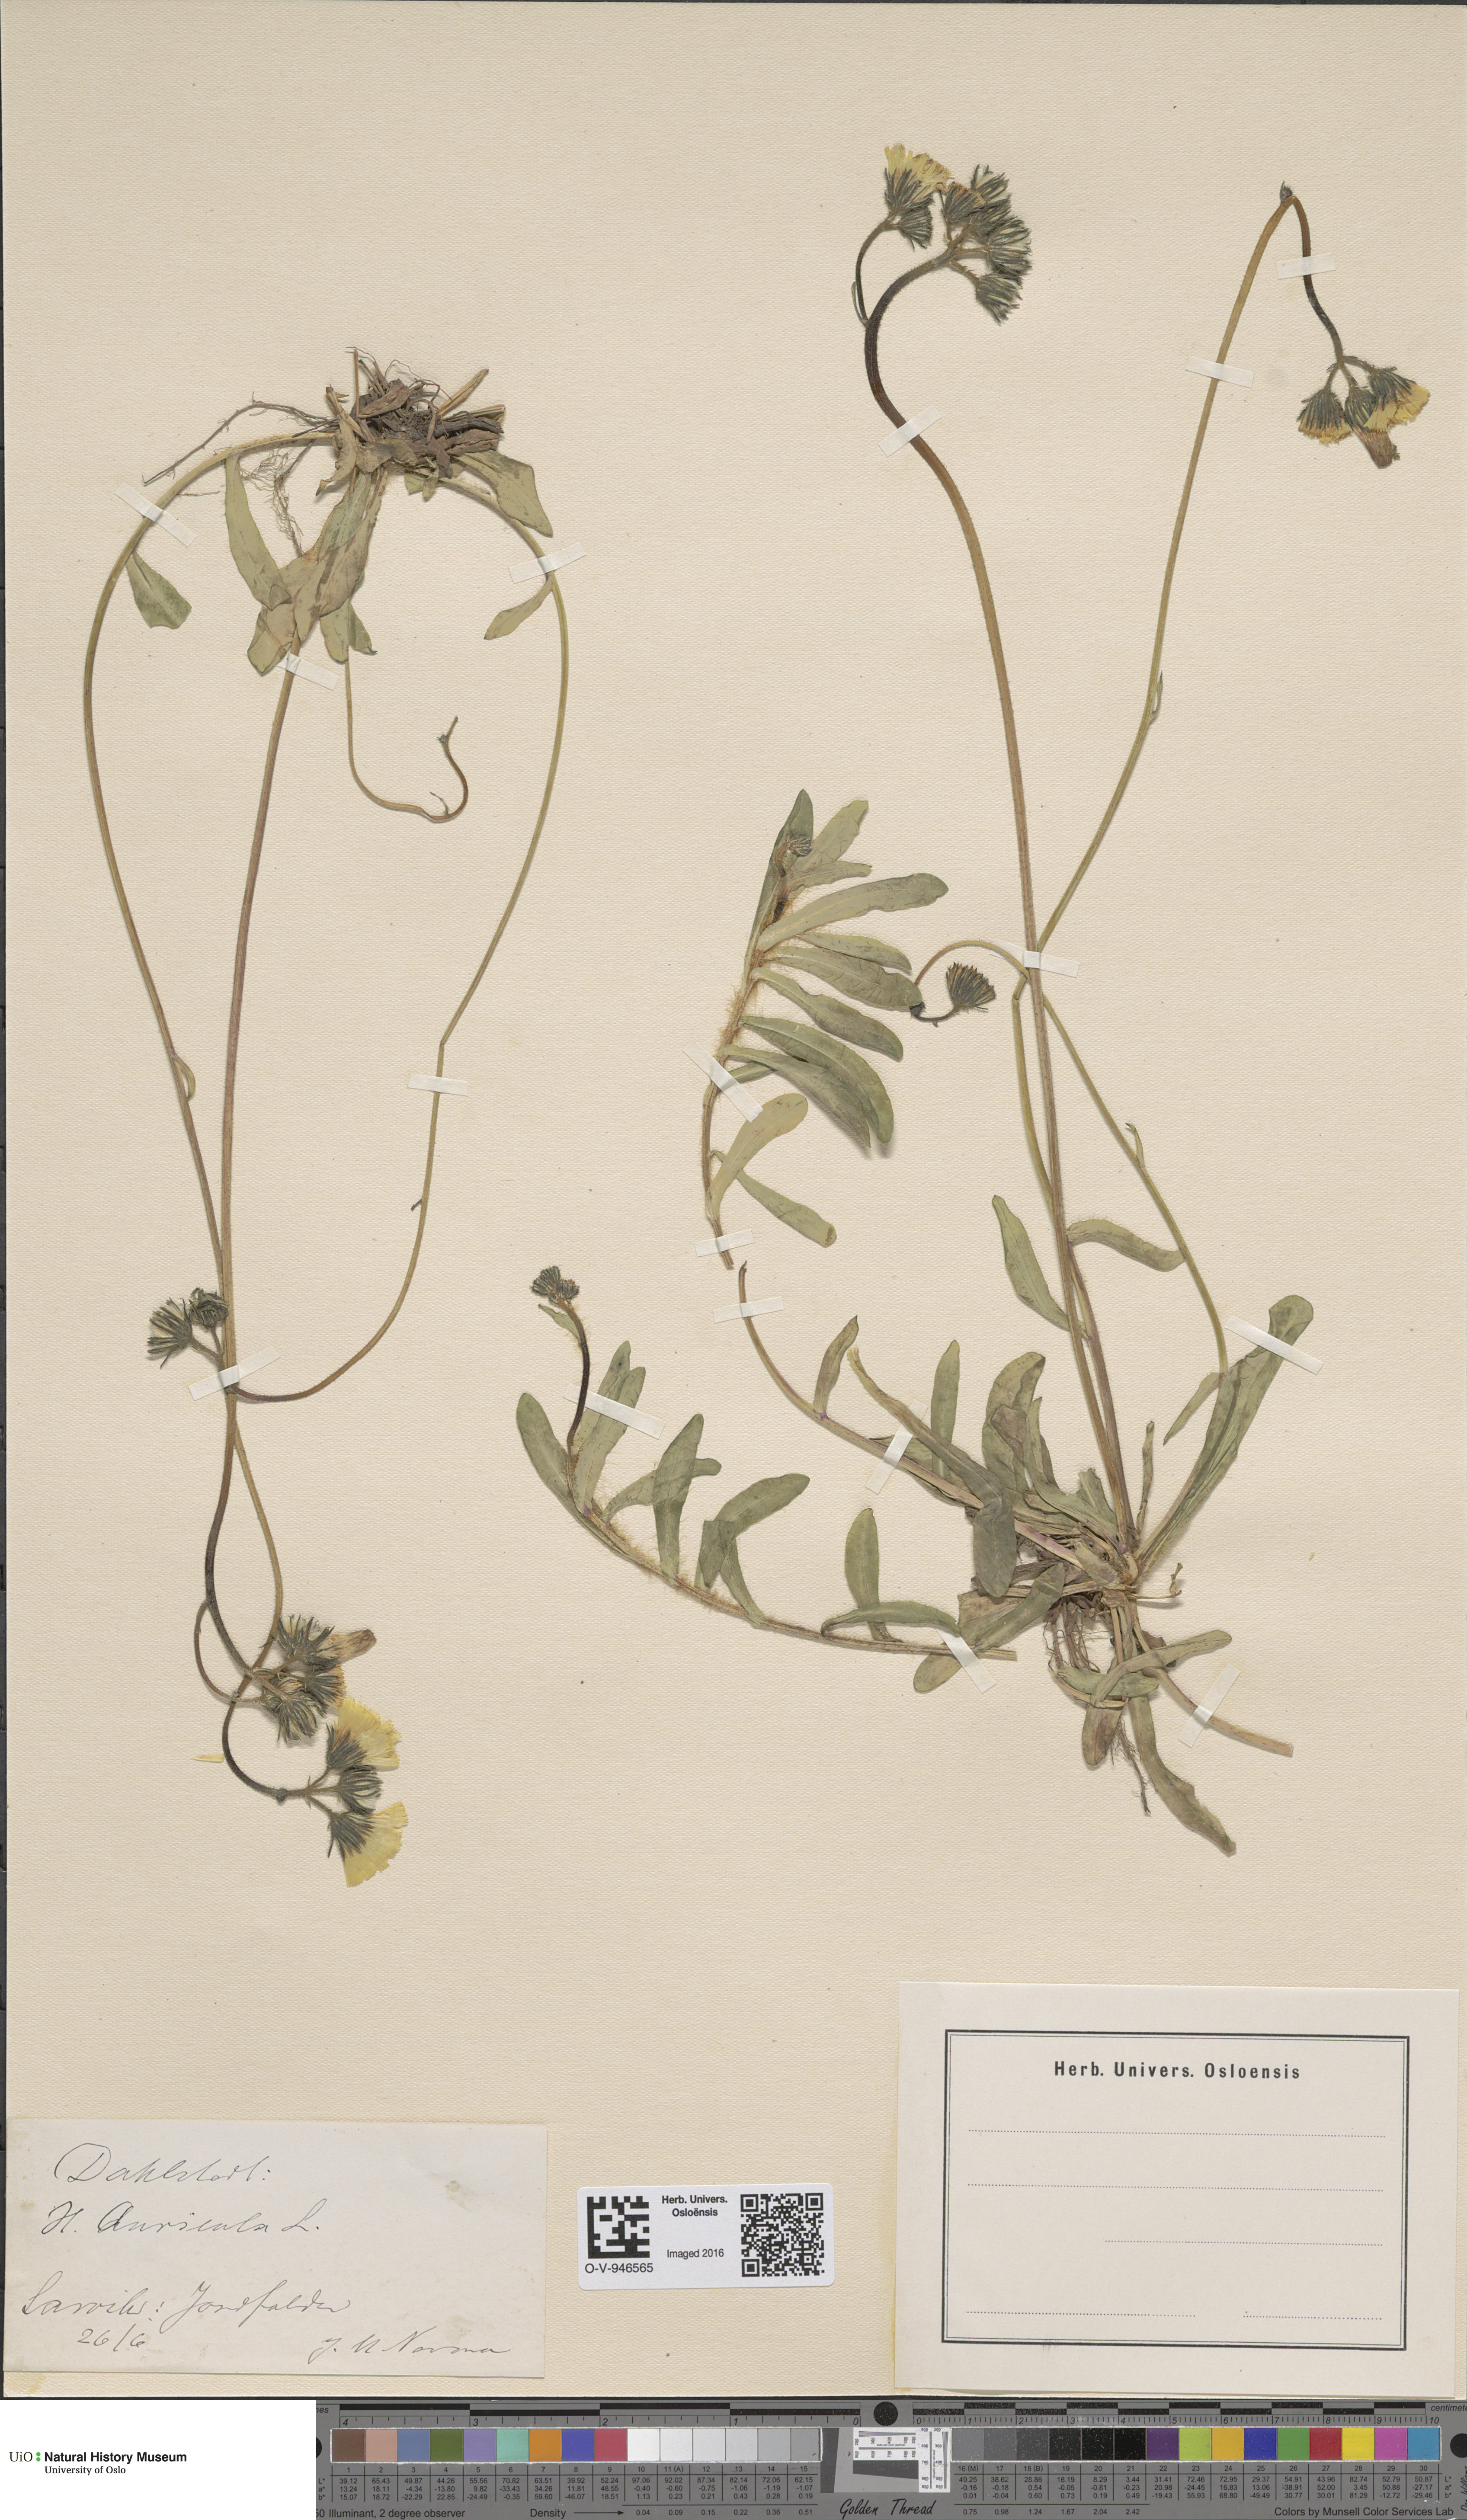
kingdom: Plantae
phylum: Tracheophyta
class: Magnoliopsida
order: Asterales
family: Asteraceae
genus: Pilosella
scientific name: Pilosella lactucella
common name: Glaucous fox-and-cubs
